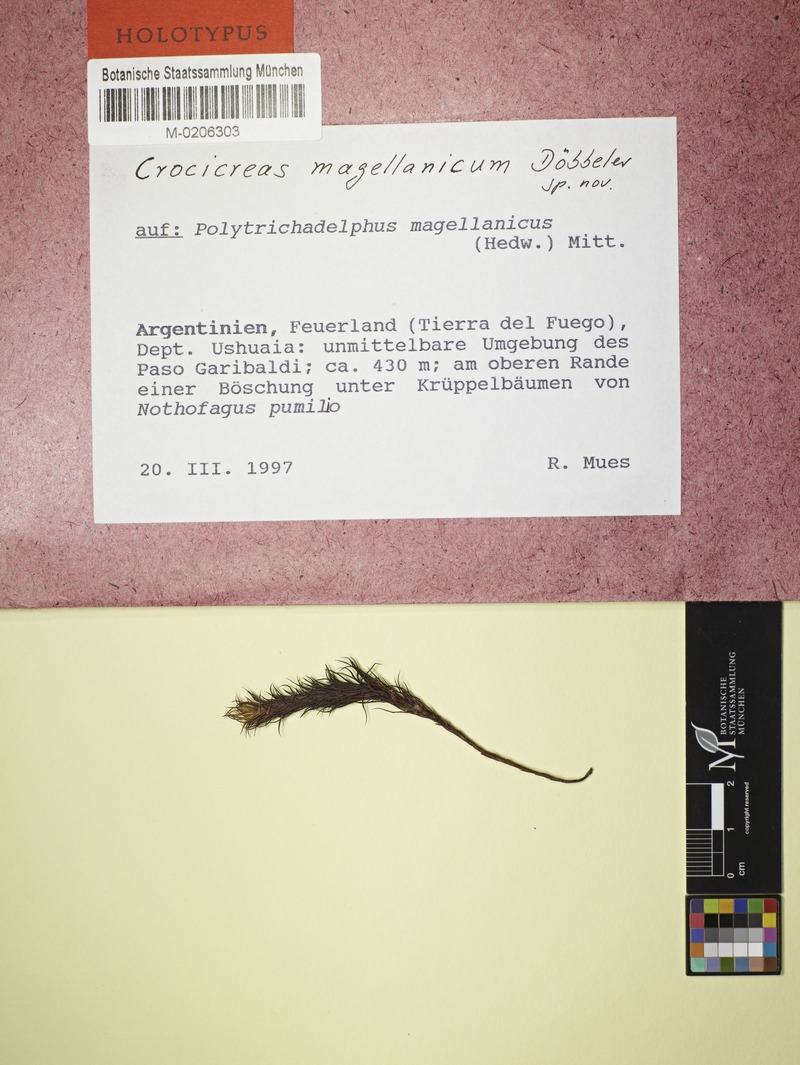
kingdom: Fungi
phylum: Ascomycota
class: Leotiomycetes
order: Helotiales
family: Helotiaceae
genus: Crocicreas
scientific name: Crocicreas magellanicum
